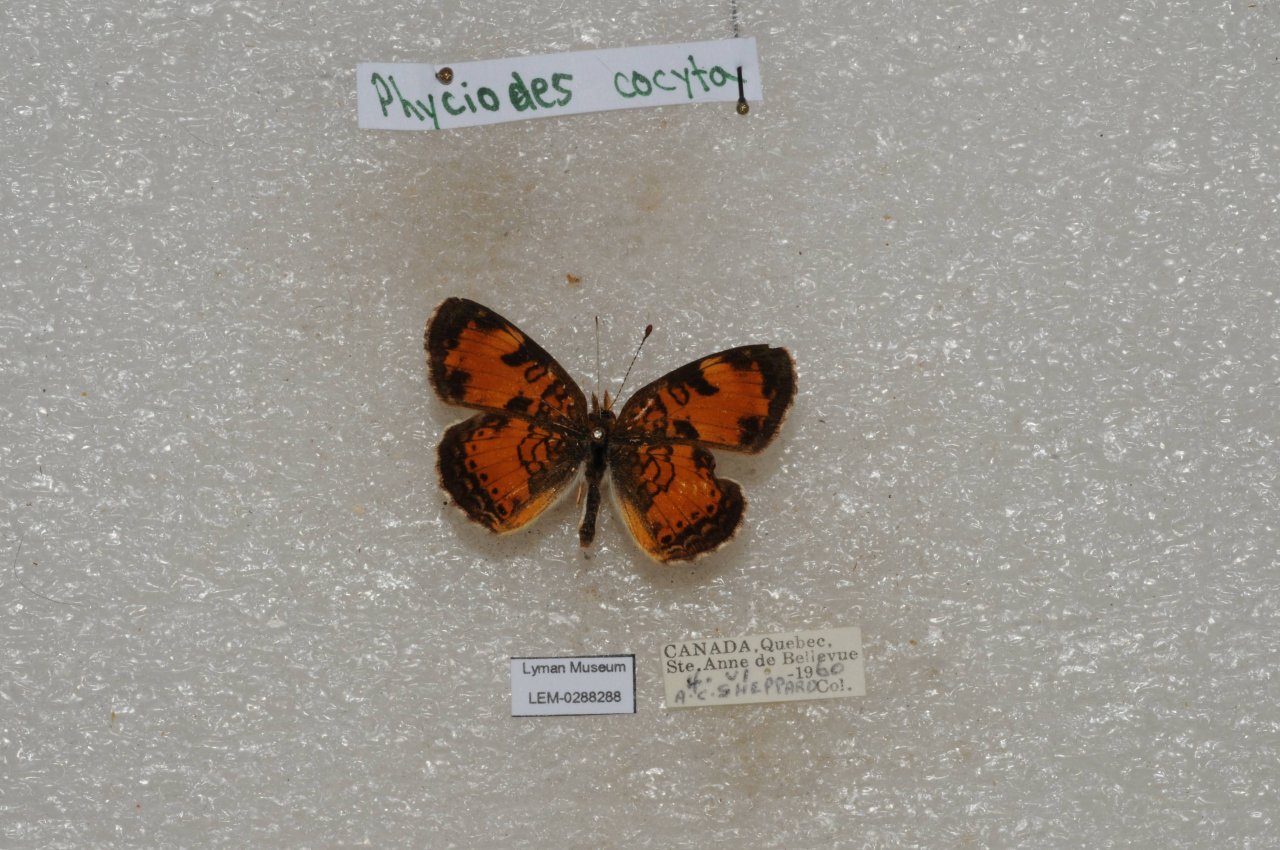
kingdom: Animalia
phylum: Arthropoda
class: Insecta
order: Lepidoptera
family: Nymphalidae
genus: Phyciodes
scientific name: Phyciodes tharos
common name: Northern Crescent
